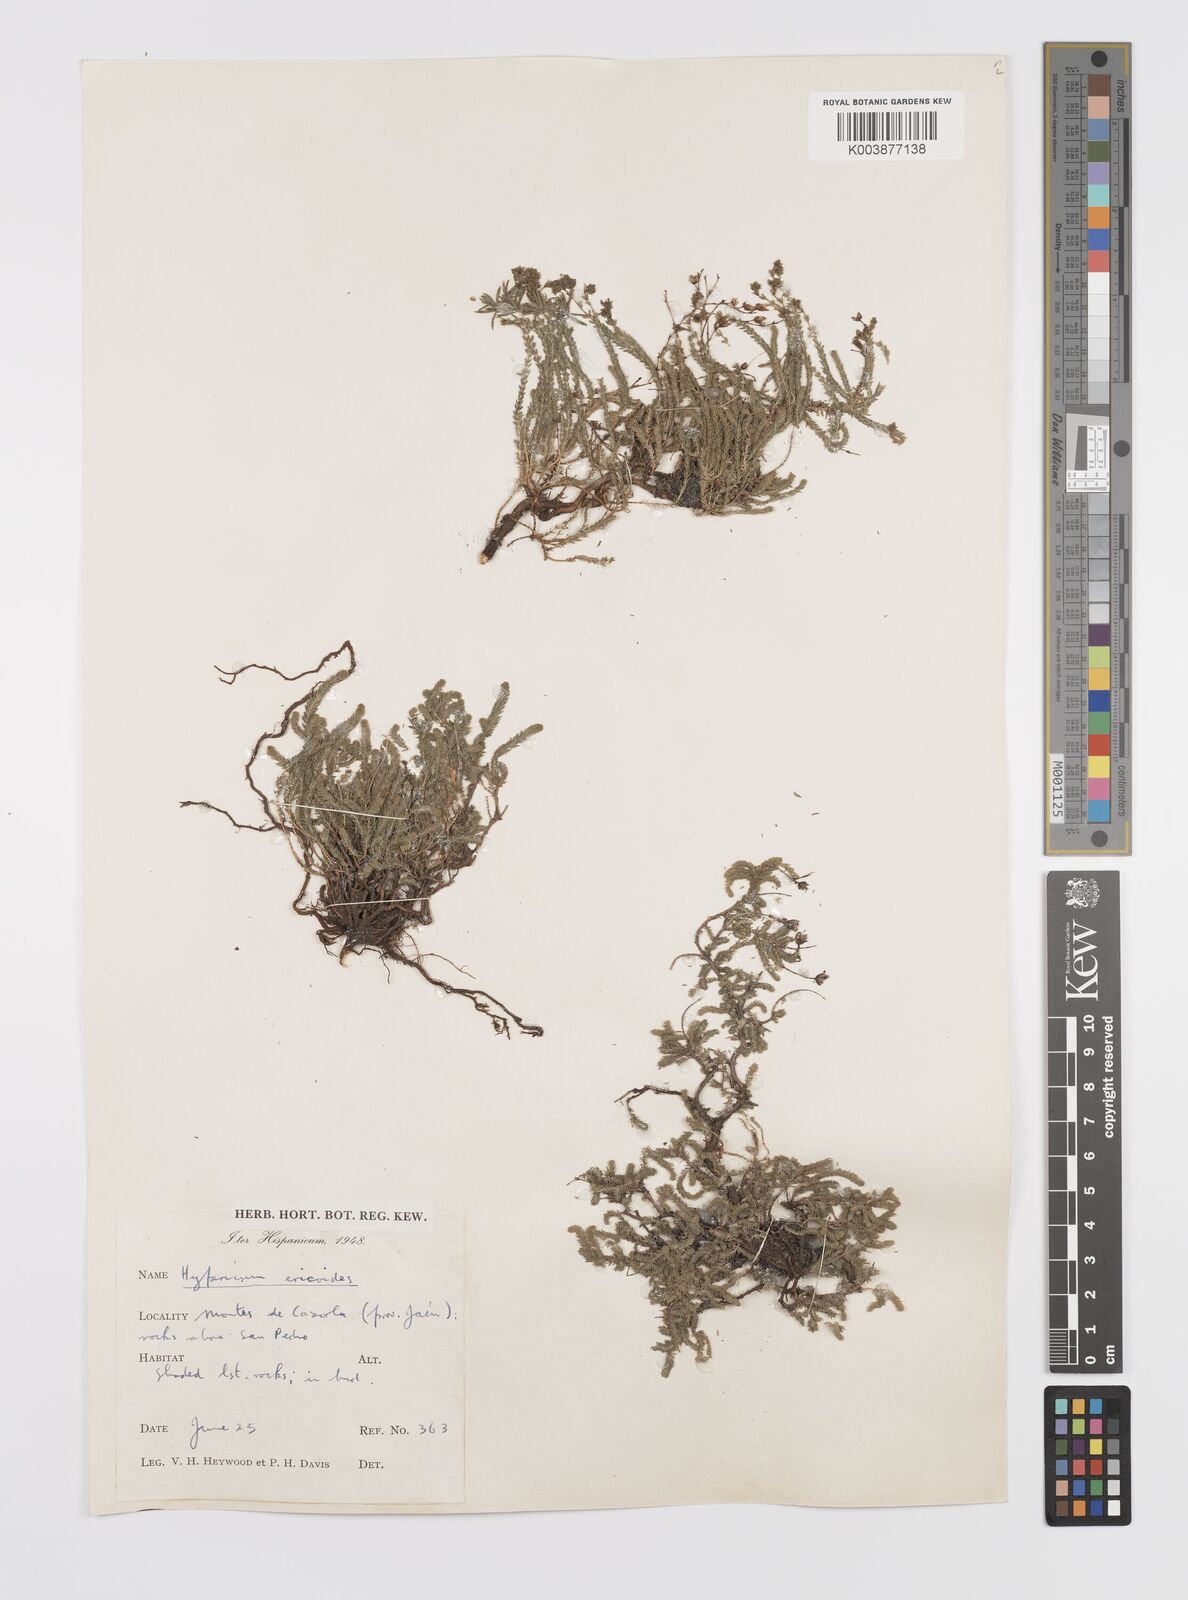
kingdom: Plantae
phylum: Tracheophyta
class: Magnoliopsida
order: Malpighiales
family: Hypericaceae
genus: Hypericum
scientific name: Hypericum ericoides
